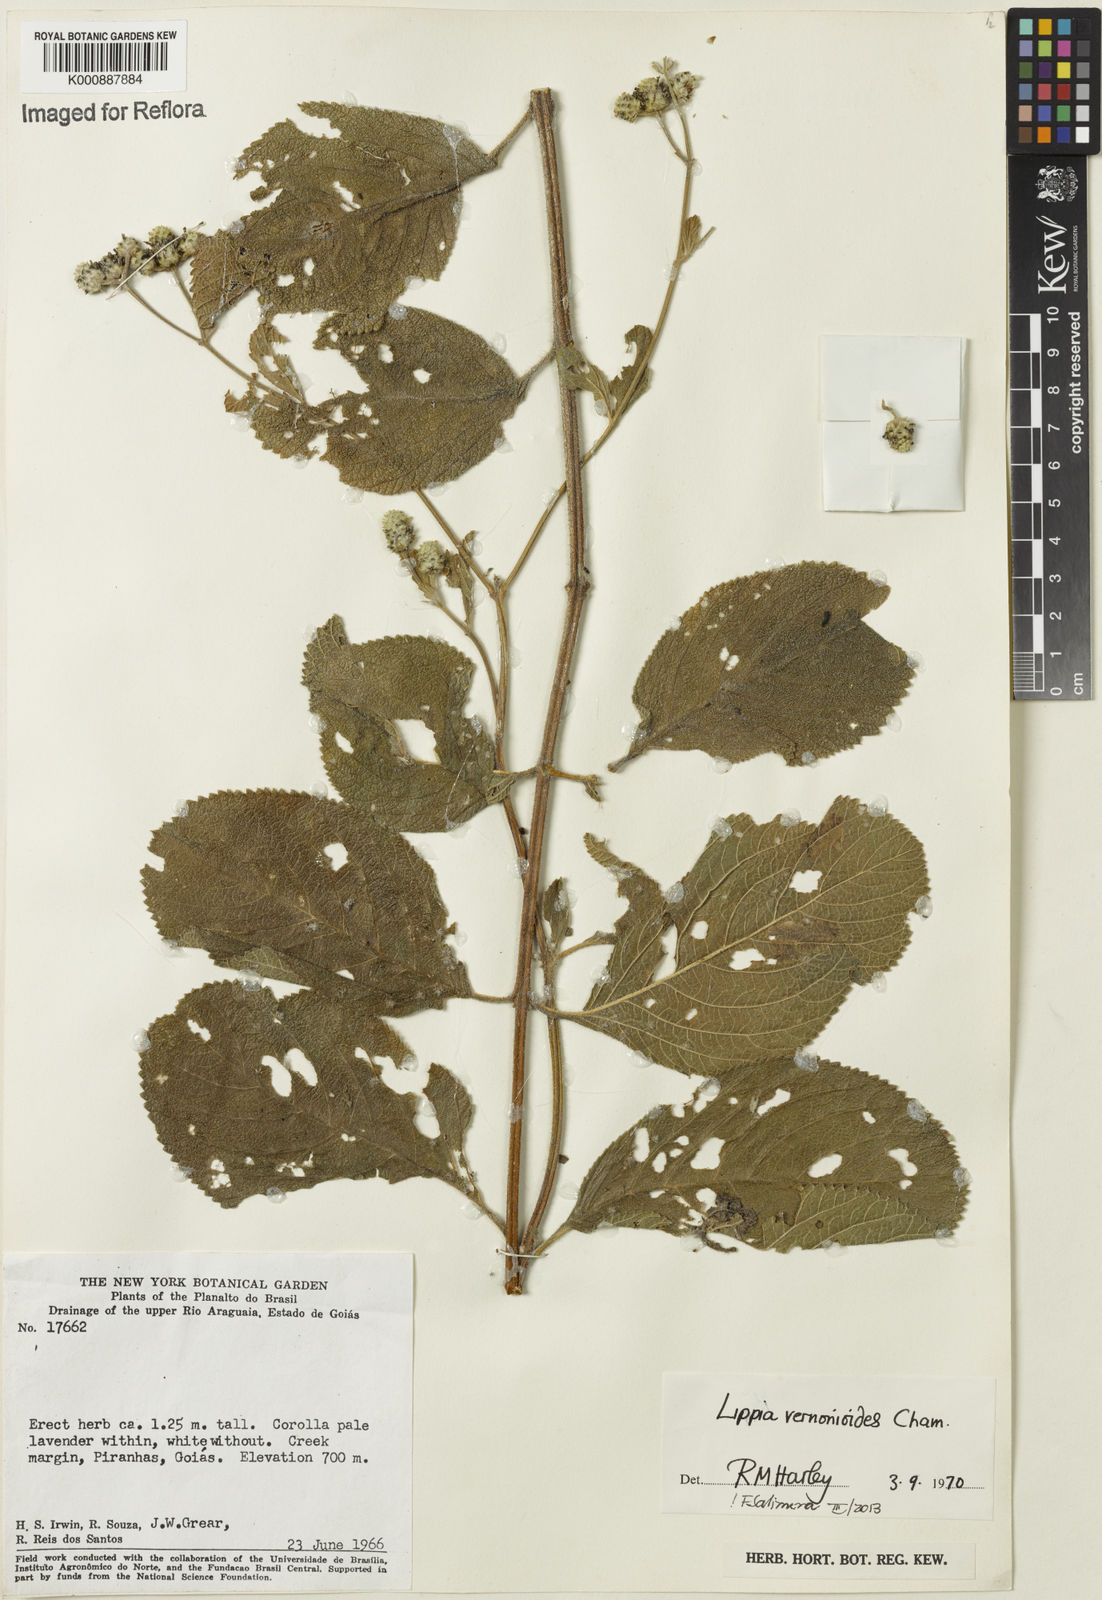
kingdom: Plantae
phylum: Tracheophyta
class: Magnoliopsida
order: Lamiales
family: Verbenaceae
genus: Lippia
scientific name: Lippia vernonioides
